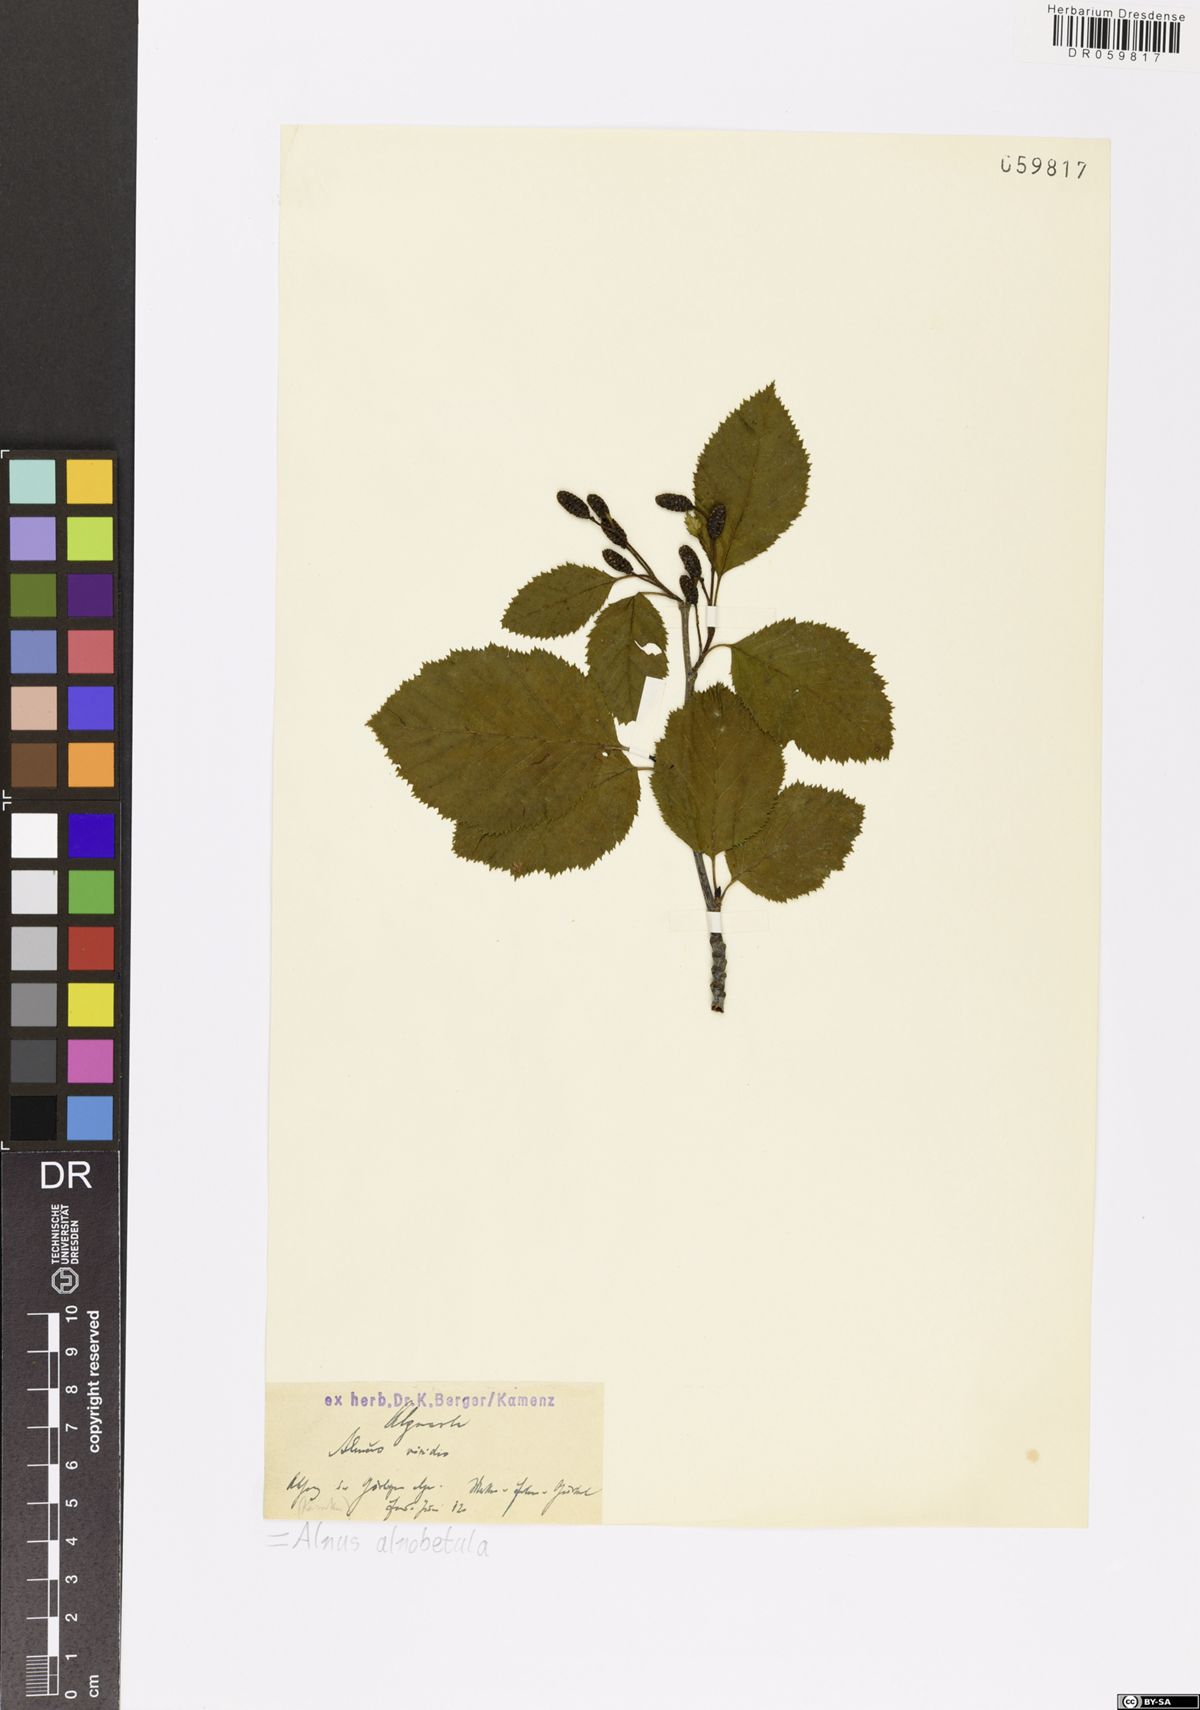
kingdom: Plantae
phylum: Tracheophyta
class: Magnoliopsida
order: Fagales
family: Betulaceae
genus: Alnus
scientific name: Alnus alnobetula
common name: Green alder
